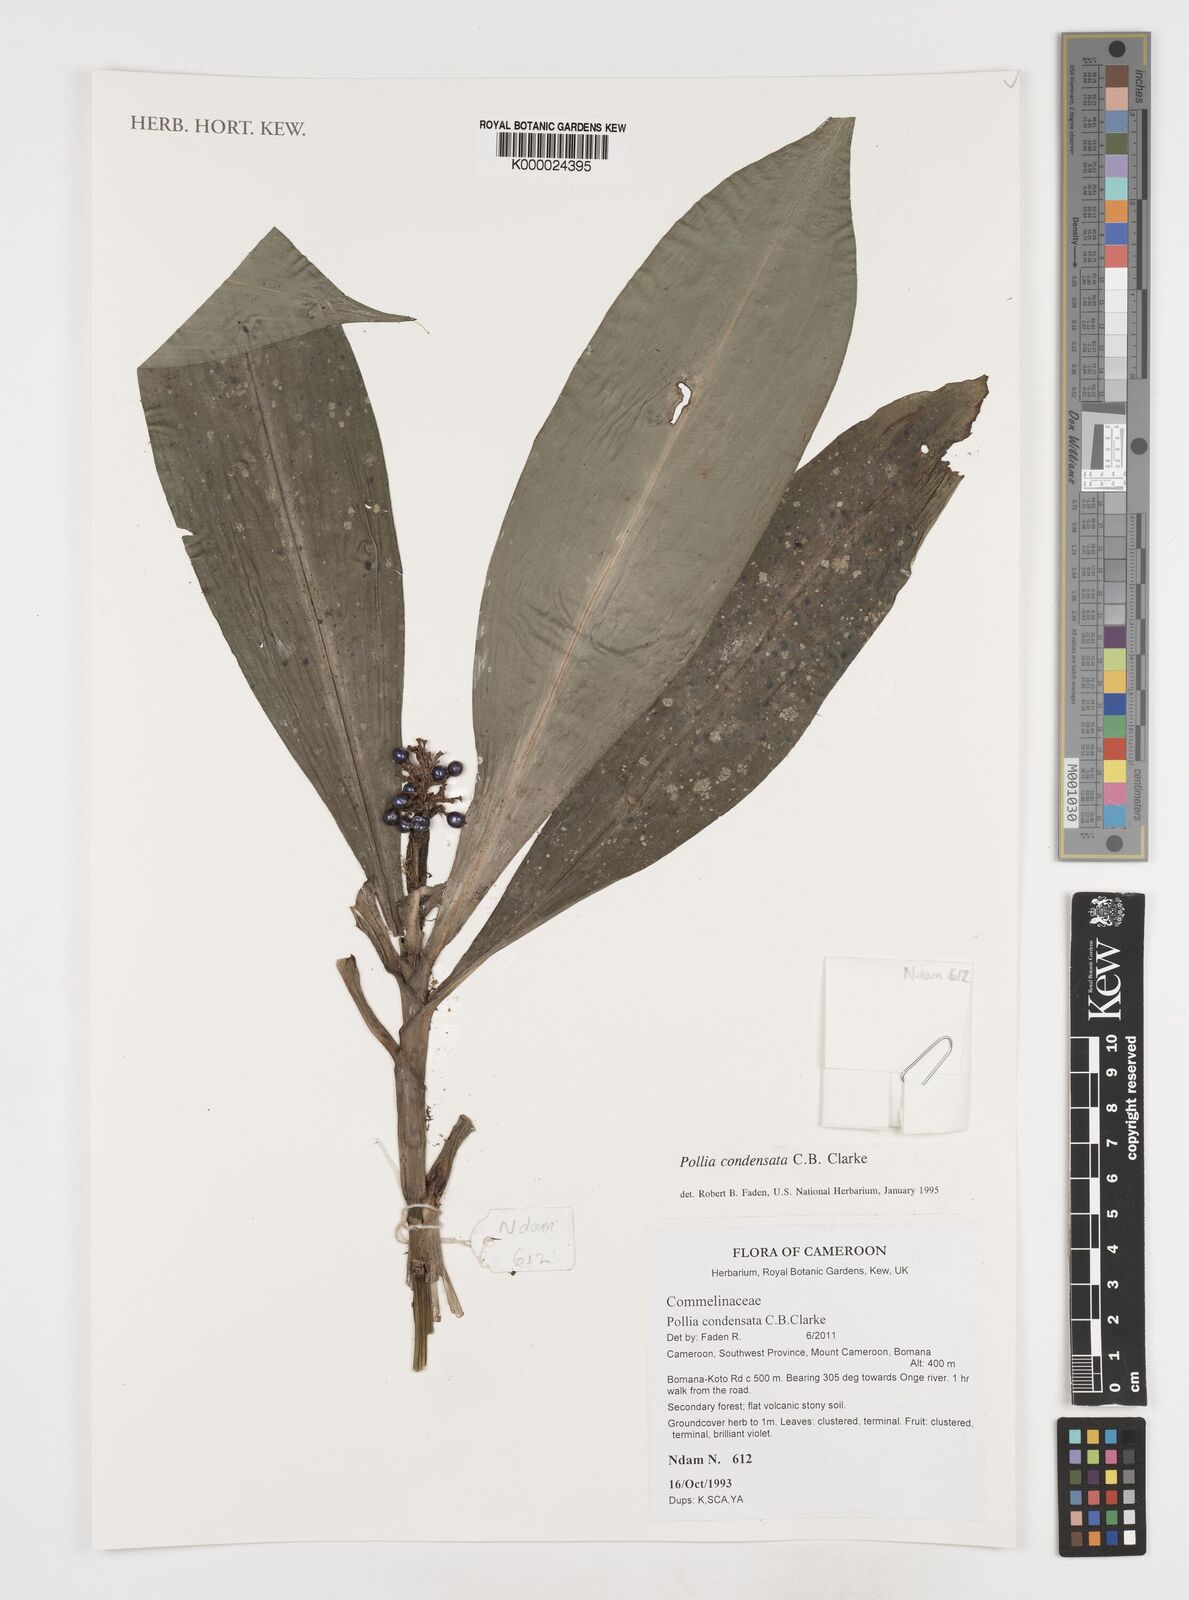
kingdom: Plantae
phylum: Tracheophyta
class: Liliopsida
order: Commelinales
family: Commelinaceae
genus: Pollia
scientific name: Pollia condensata
